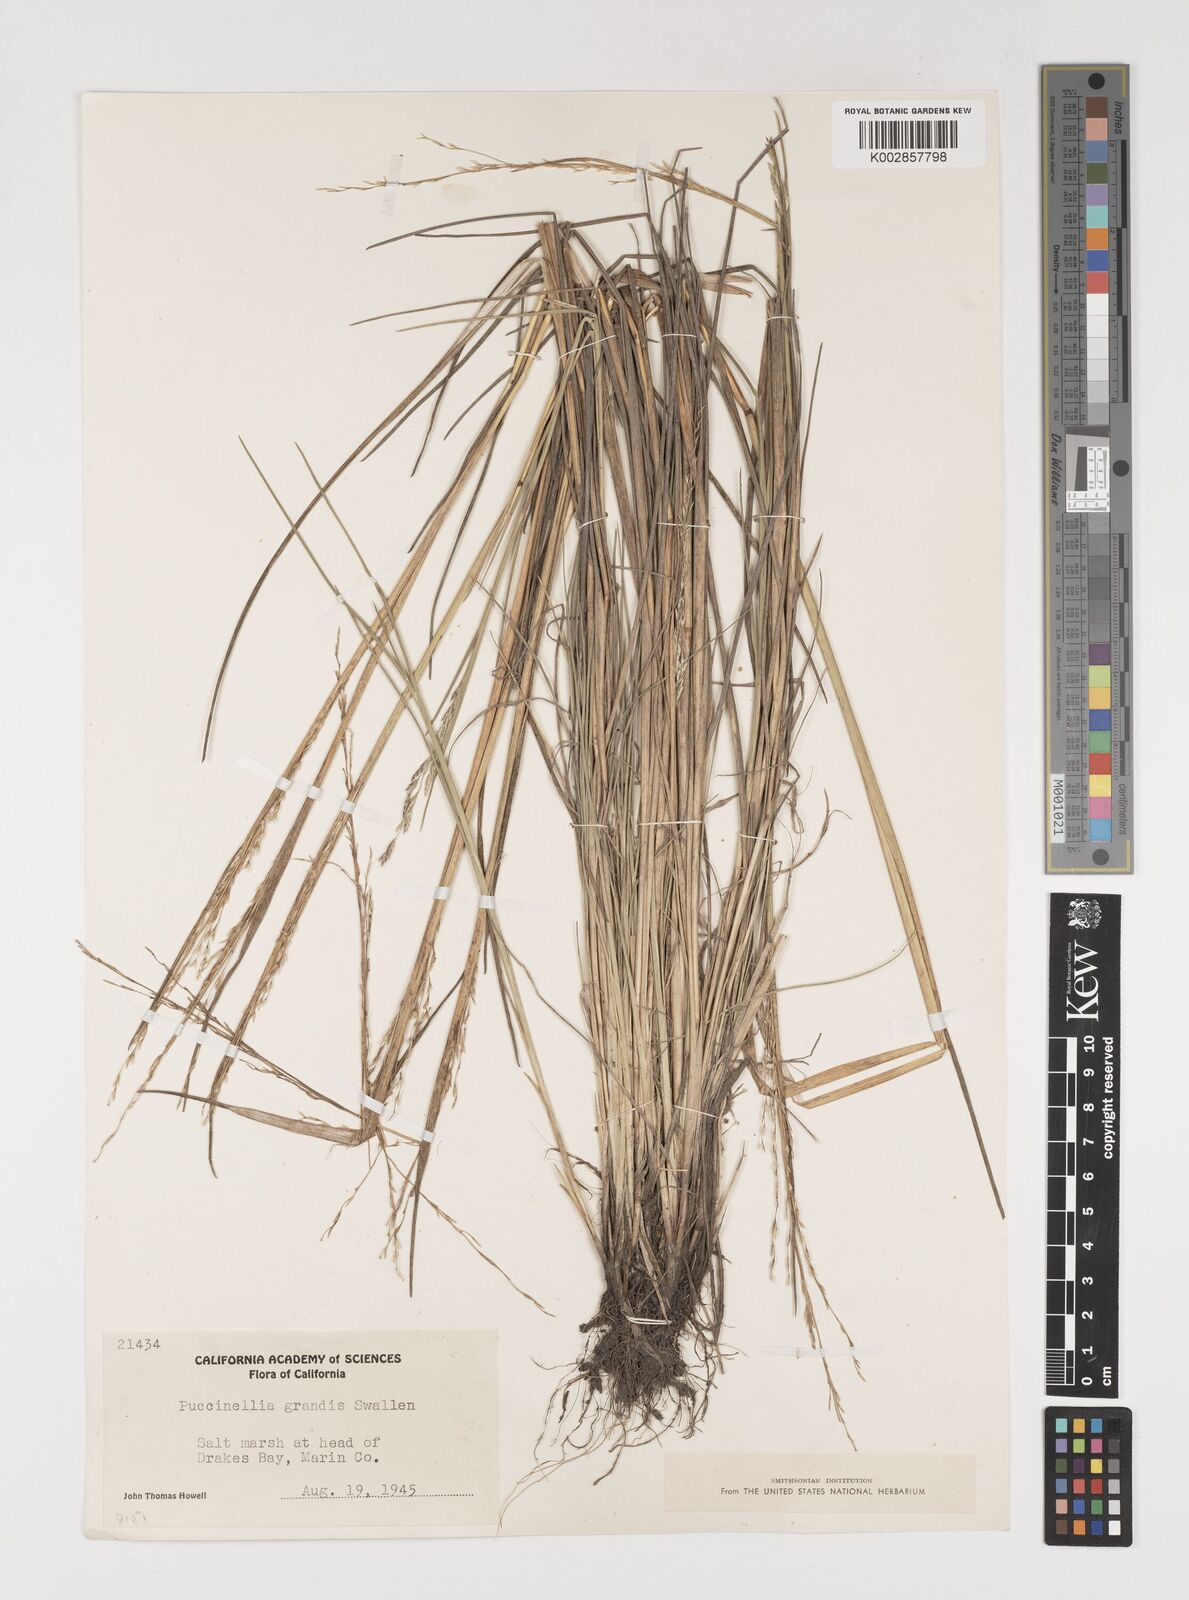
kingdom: Plantae
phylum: Tracheophyta
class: Liliopsida
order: Poales
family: Poaceae
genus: Puccinellia
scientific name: Puccinellia nutkaensis
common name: Nootka alkaligrass
